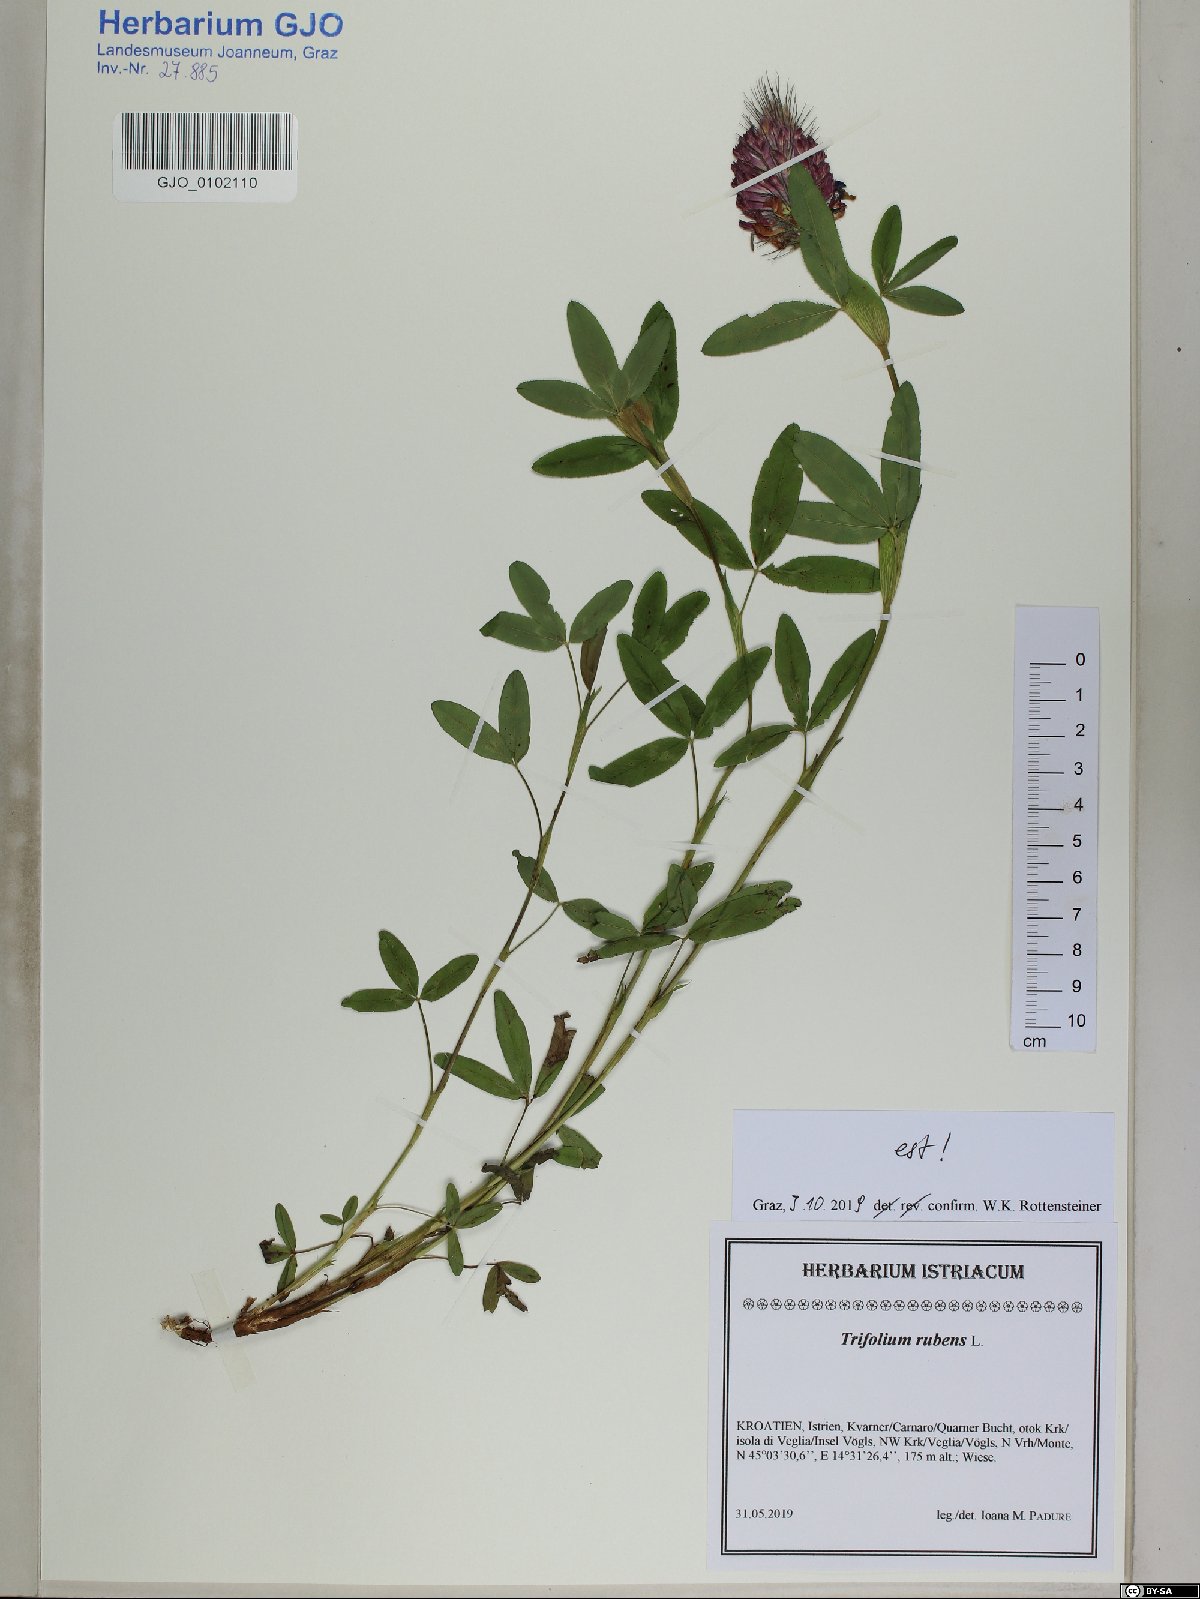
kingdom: Plantae
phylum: Tracheophyta
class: Magnoliopsida
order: Fabales
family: Fabaceae
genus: Trifolium
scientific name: Trifolium rubens
